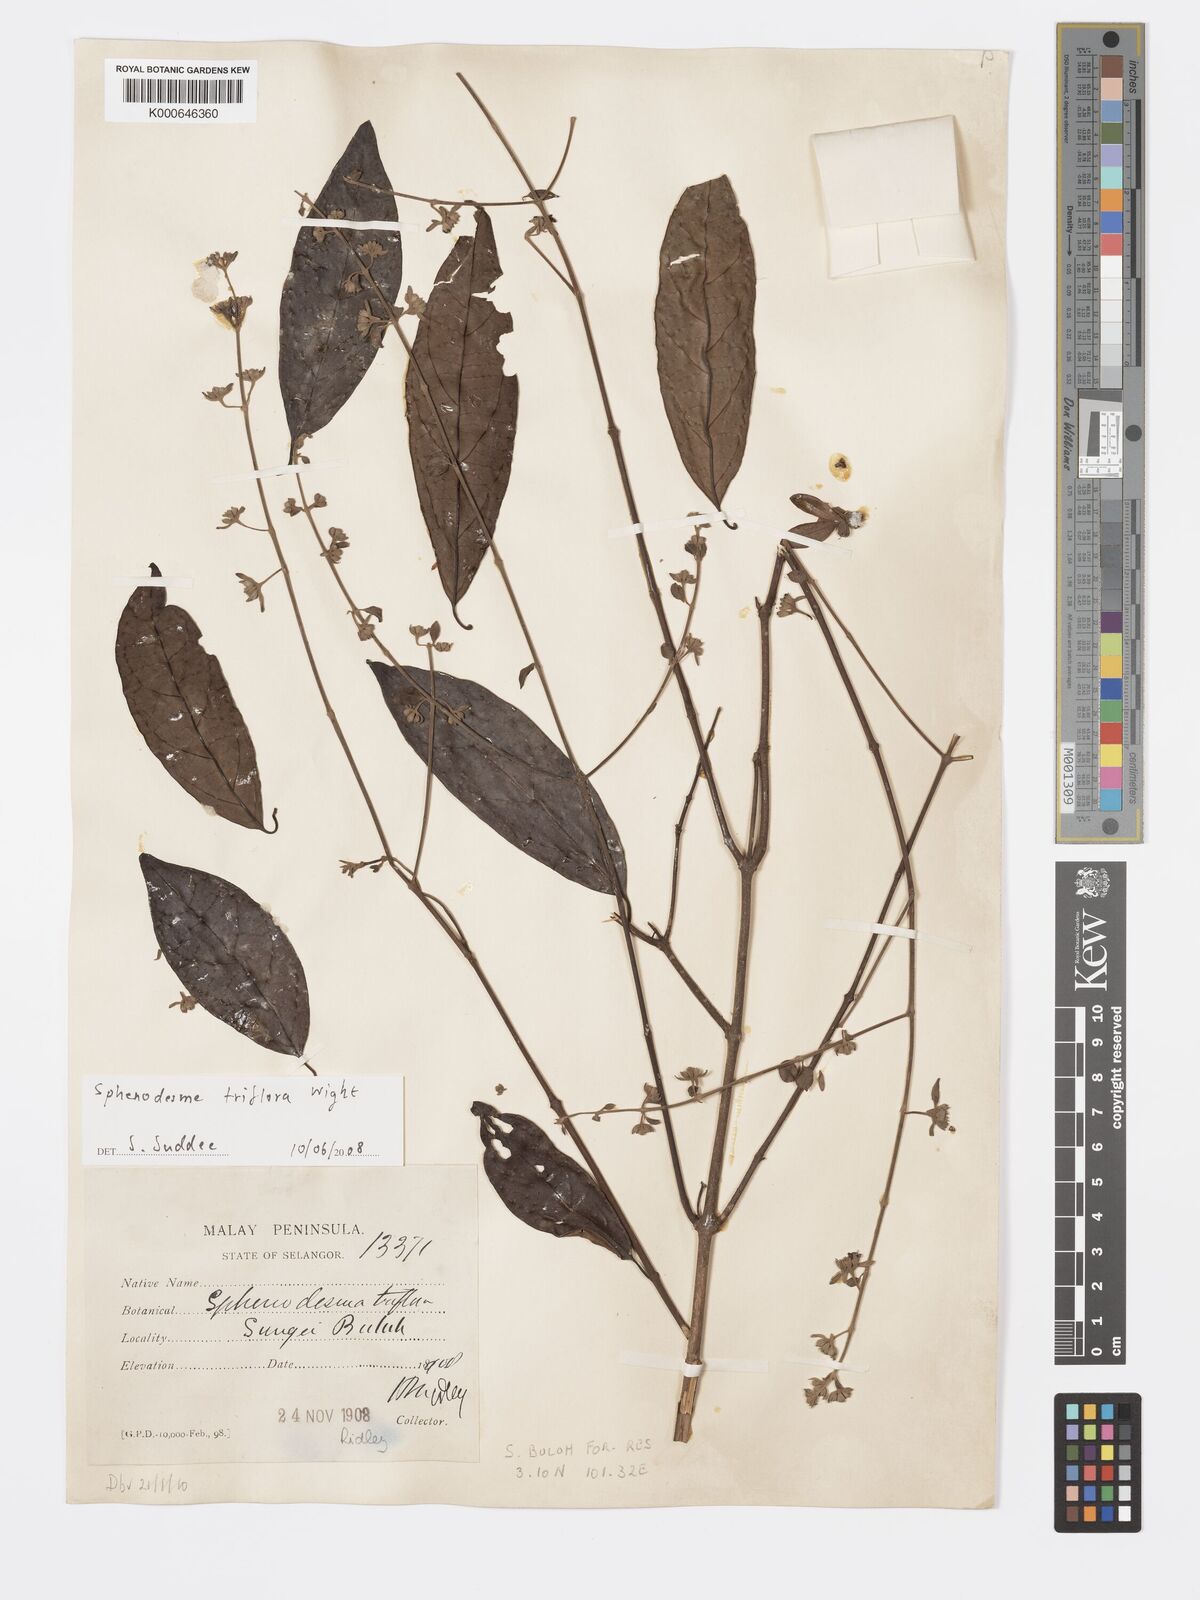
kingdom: Plantae
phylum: Tracheophyta
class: Magnoliopsida
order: Lamiales
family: Lamiaceae
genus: Sphenodesme
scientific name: Sphenodesme
